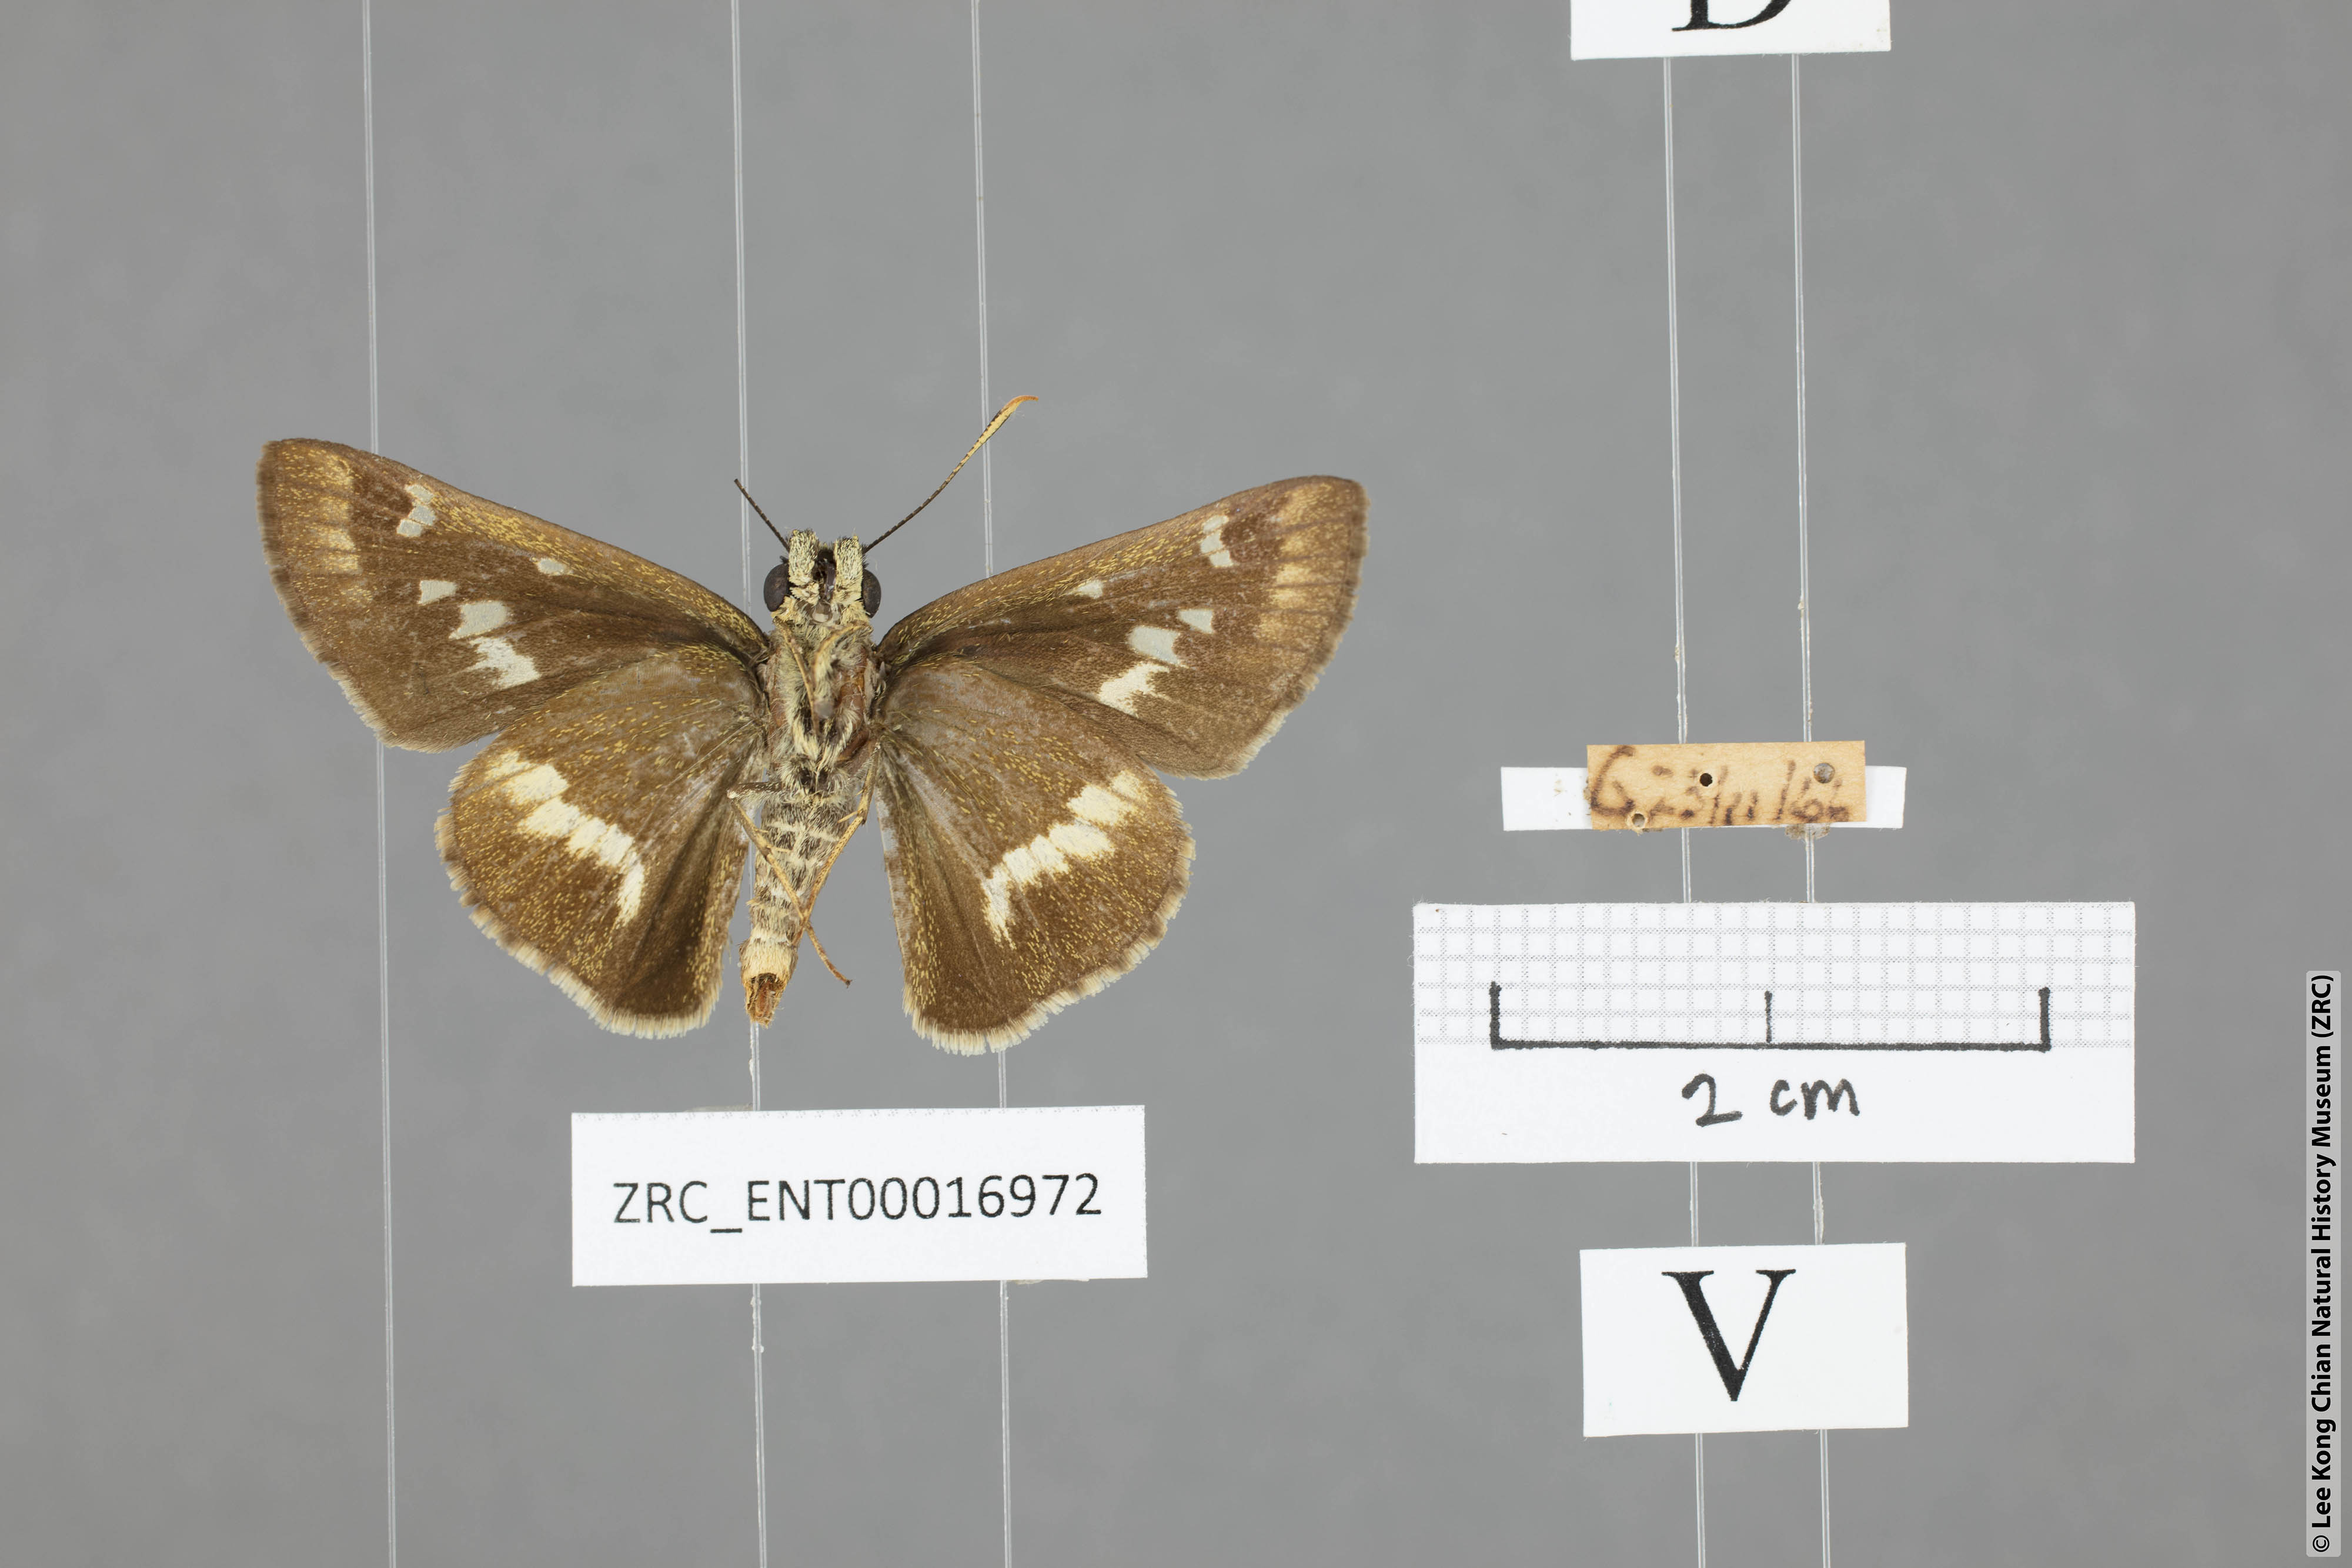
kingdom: Animalia
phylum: Arthropoda
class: Insecta
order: Lepidoptera
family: Hesperiidae
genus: Halpe
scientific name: Halpe elana
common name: Narrow-banded ace
